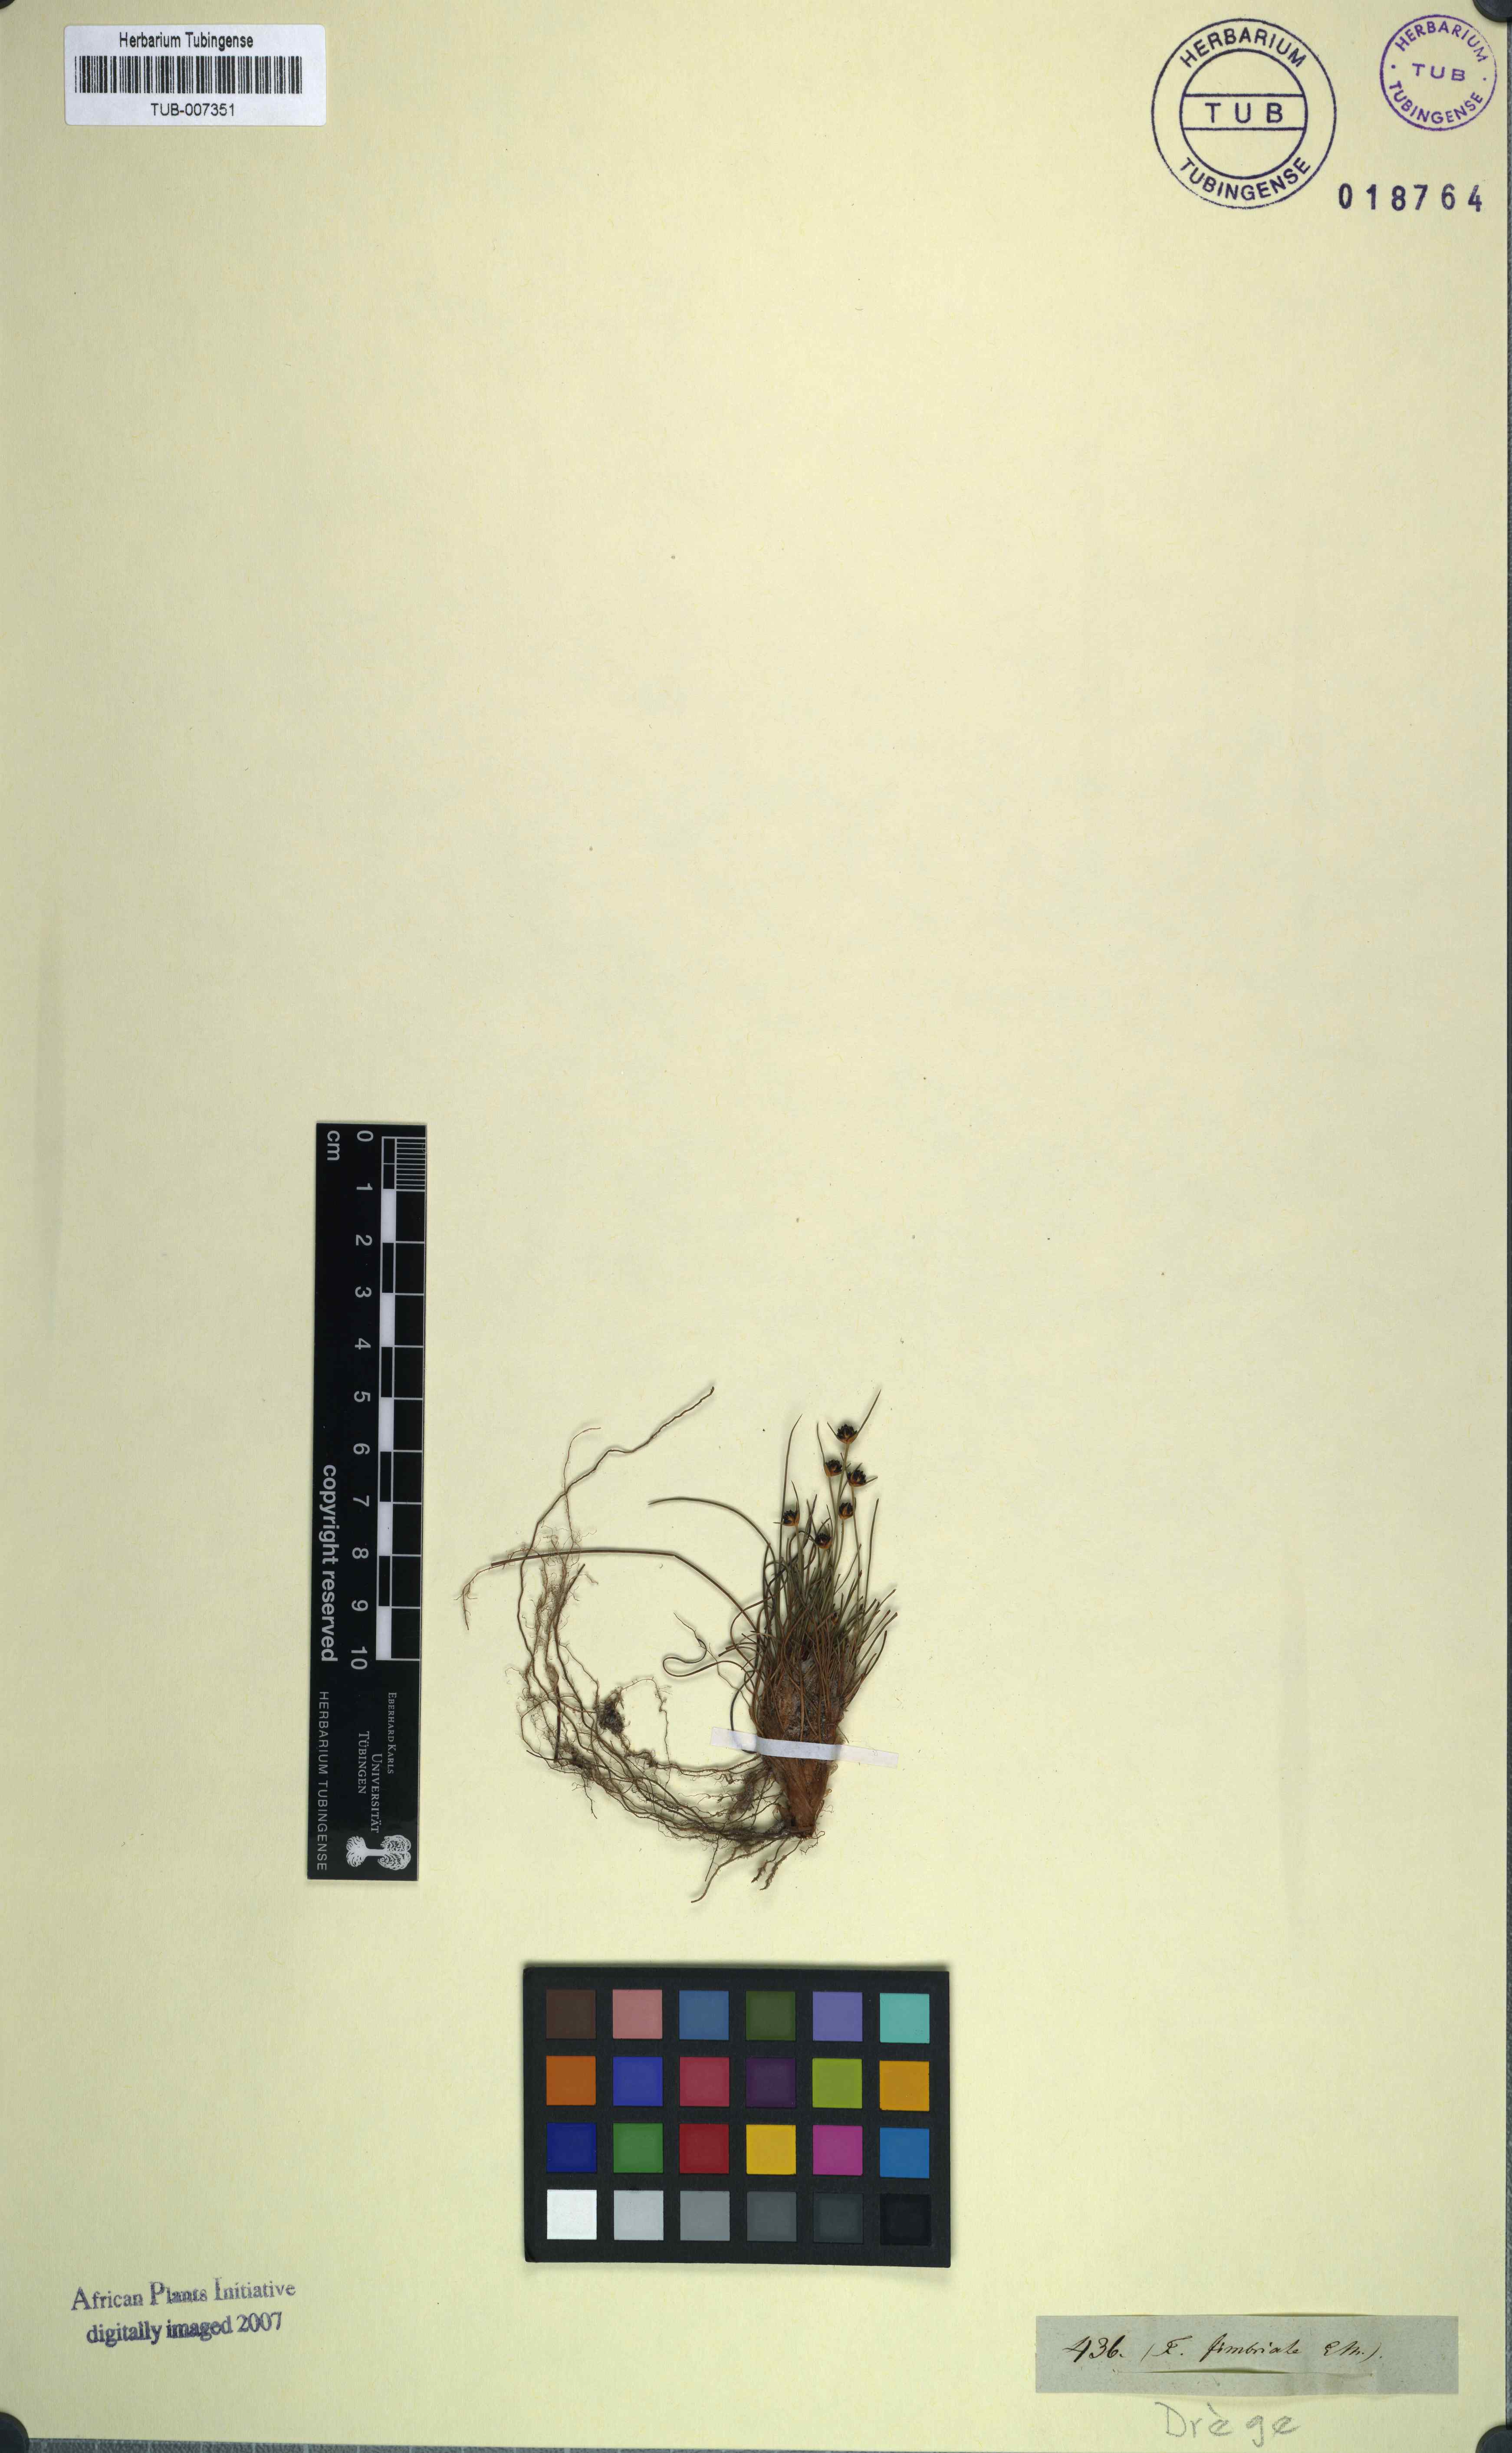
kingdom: Plantae
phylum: Tracheophyta
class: Liliopsida
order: Poales
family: Cyperaceae
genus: Ficinia
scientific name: Ficinia paradoxa
